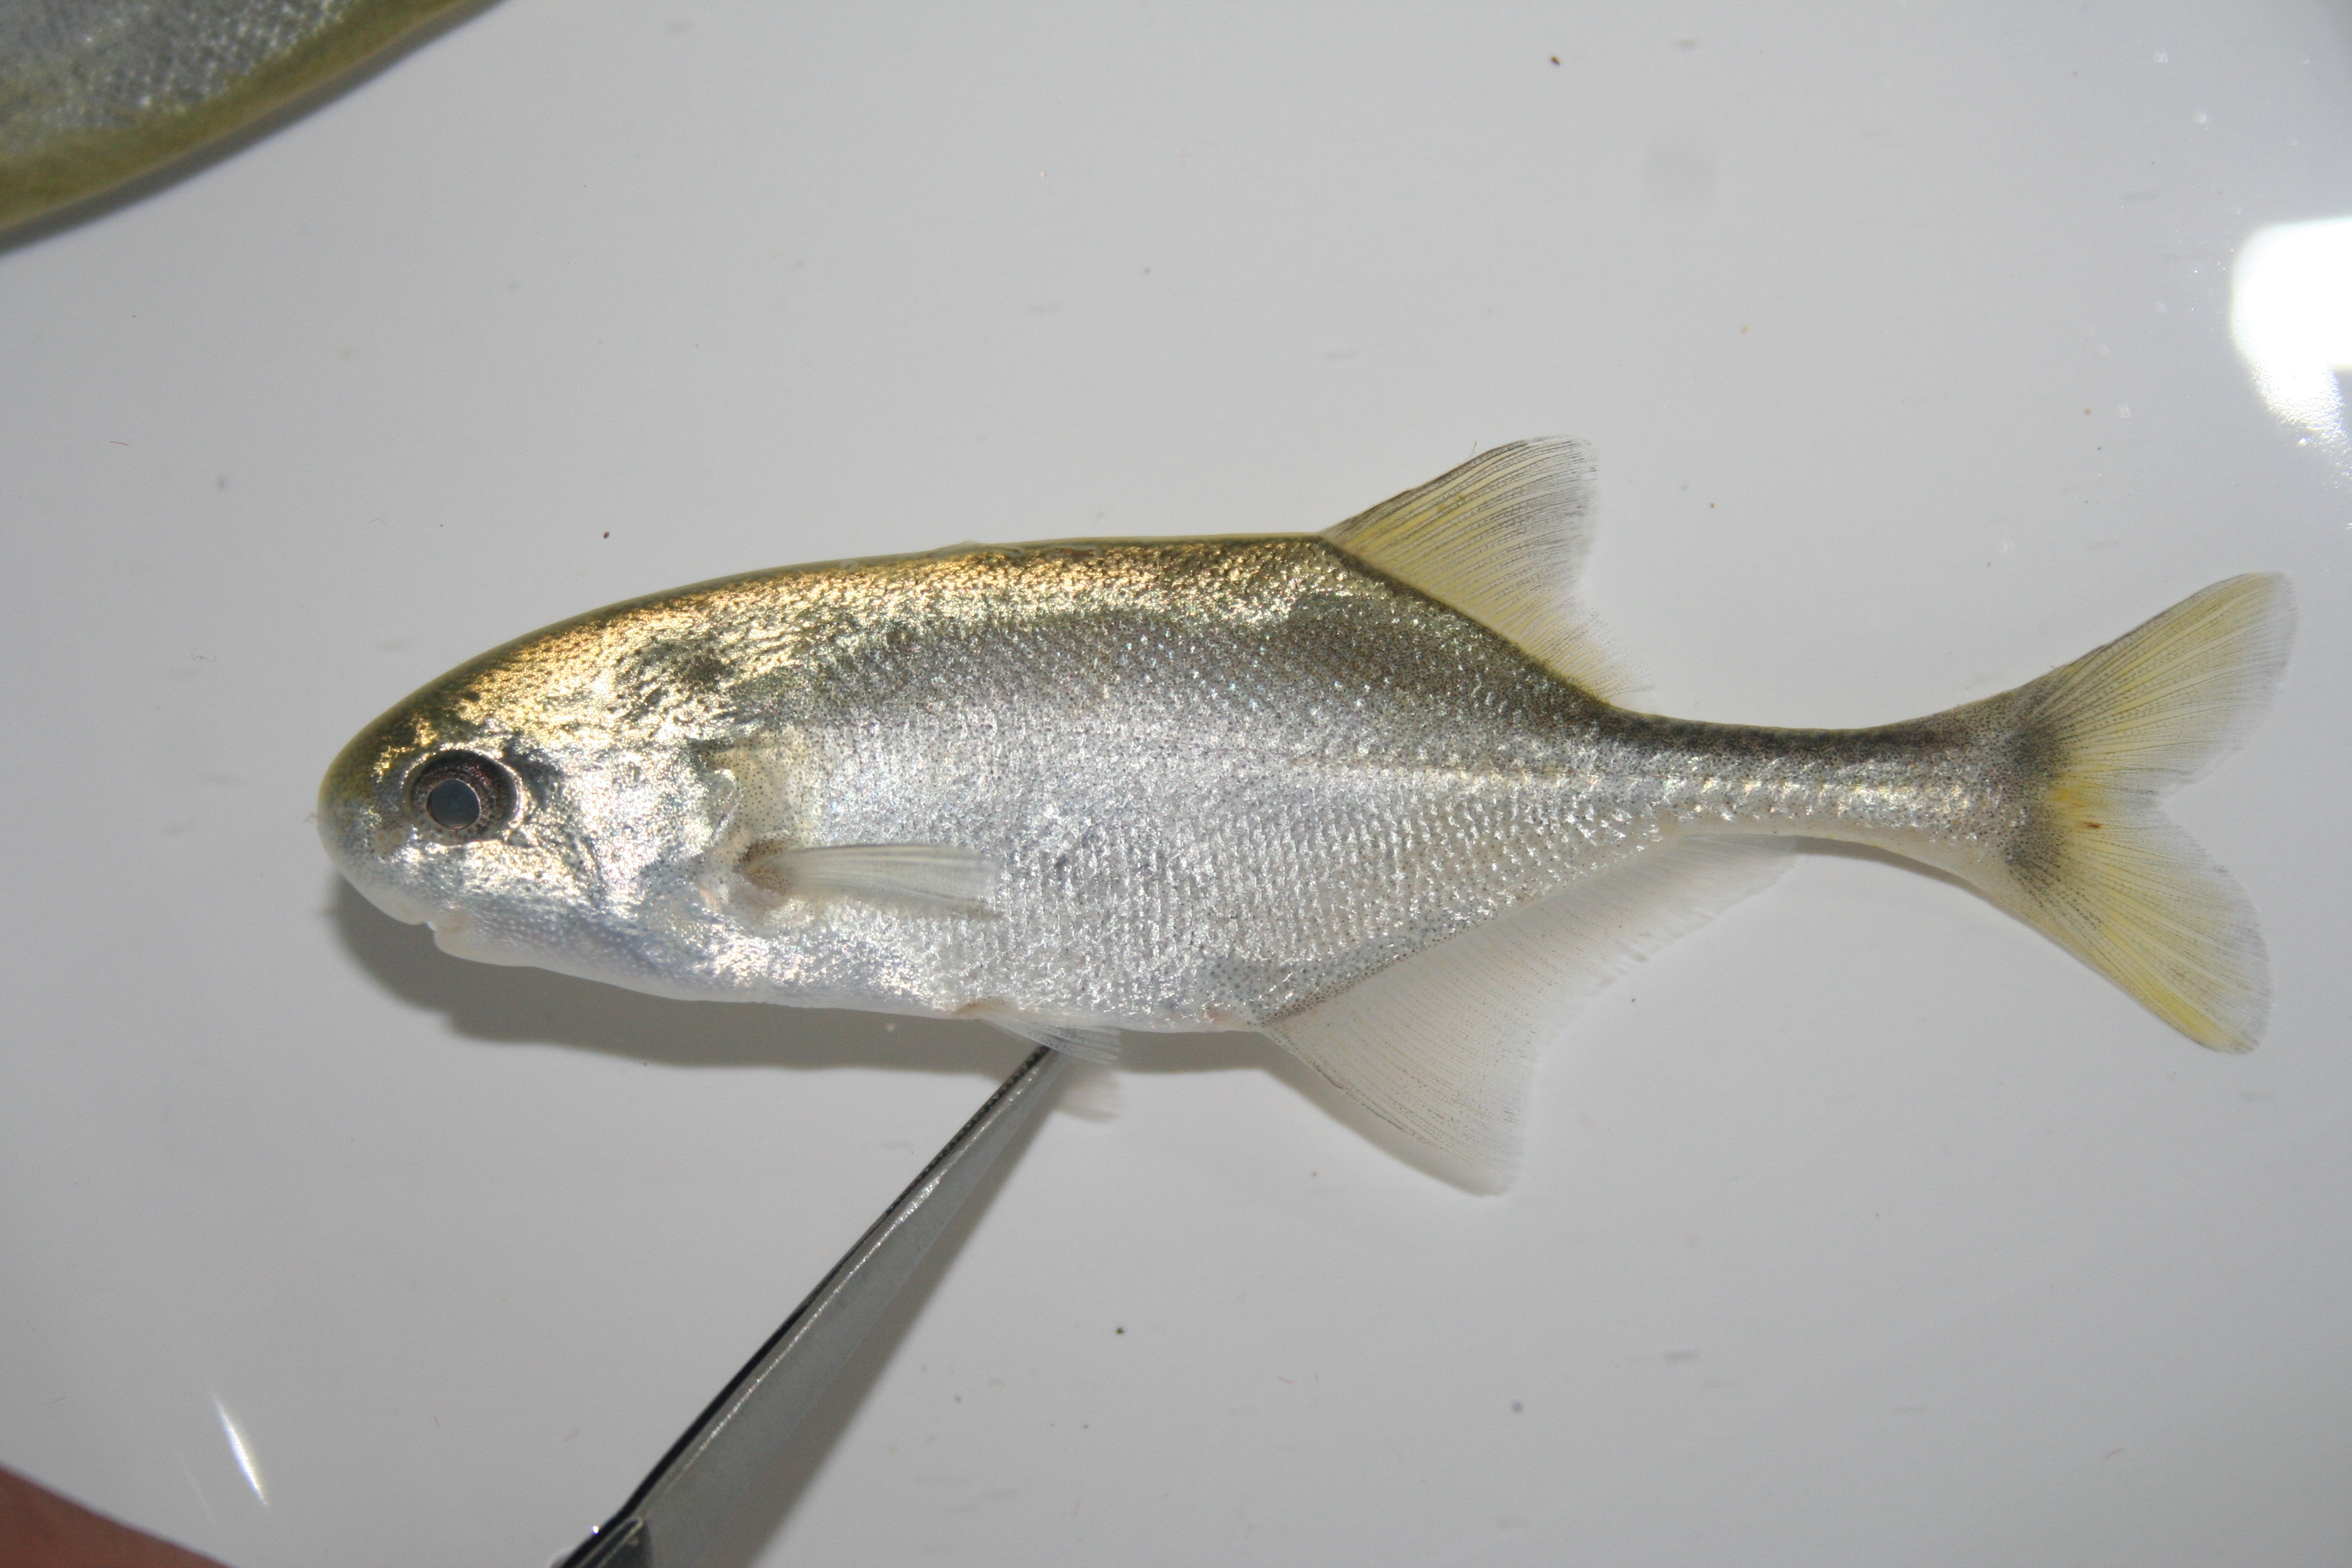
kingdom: Animalia
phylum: Chordata
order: Osteoglossiformes
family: Mormyridae
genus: Petrocephalus
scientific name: Petrocephalus
